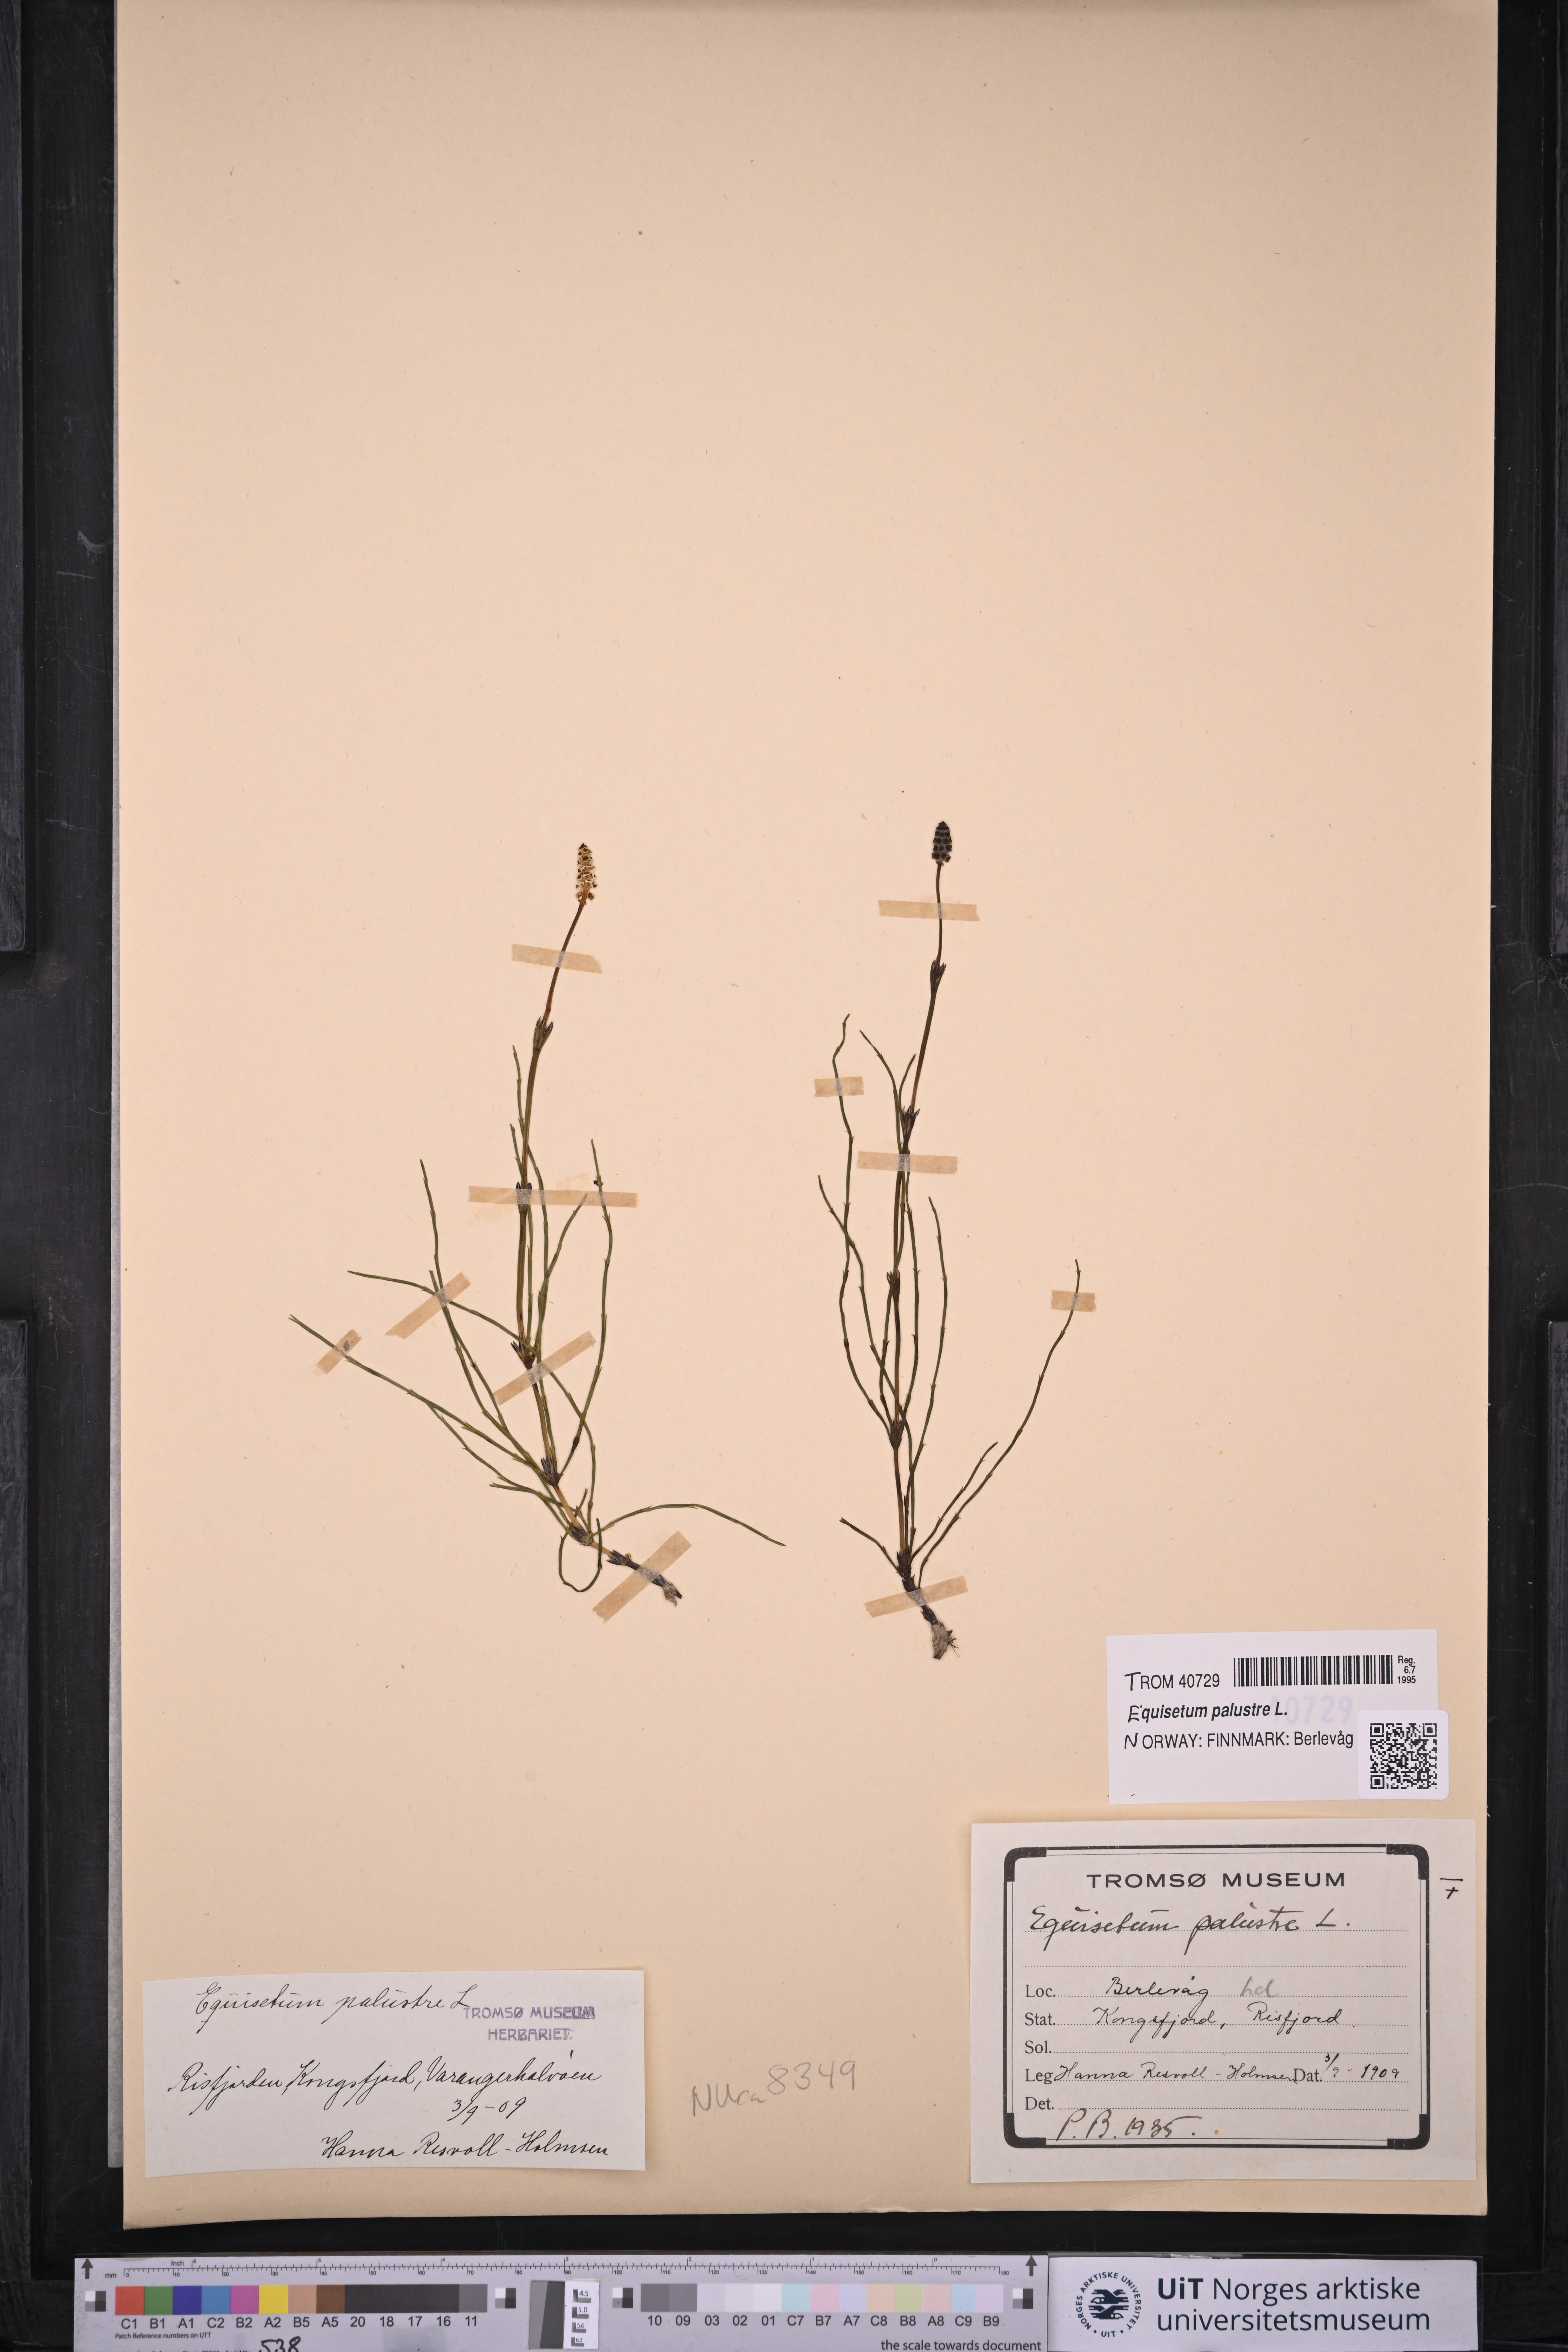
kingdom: Plantae
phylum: Tracheophyta
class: Polypodiopsida
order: Equisetales
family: Equisetaceae
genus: Equisetum
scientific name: Equisetum palustre
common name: Marsh horsetail
